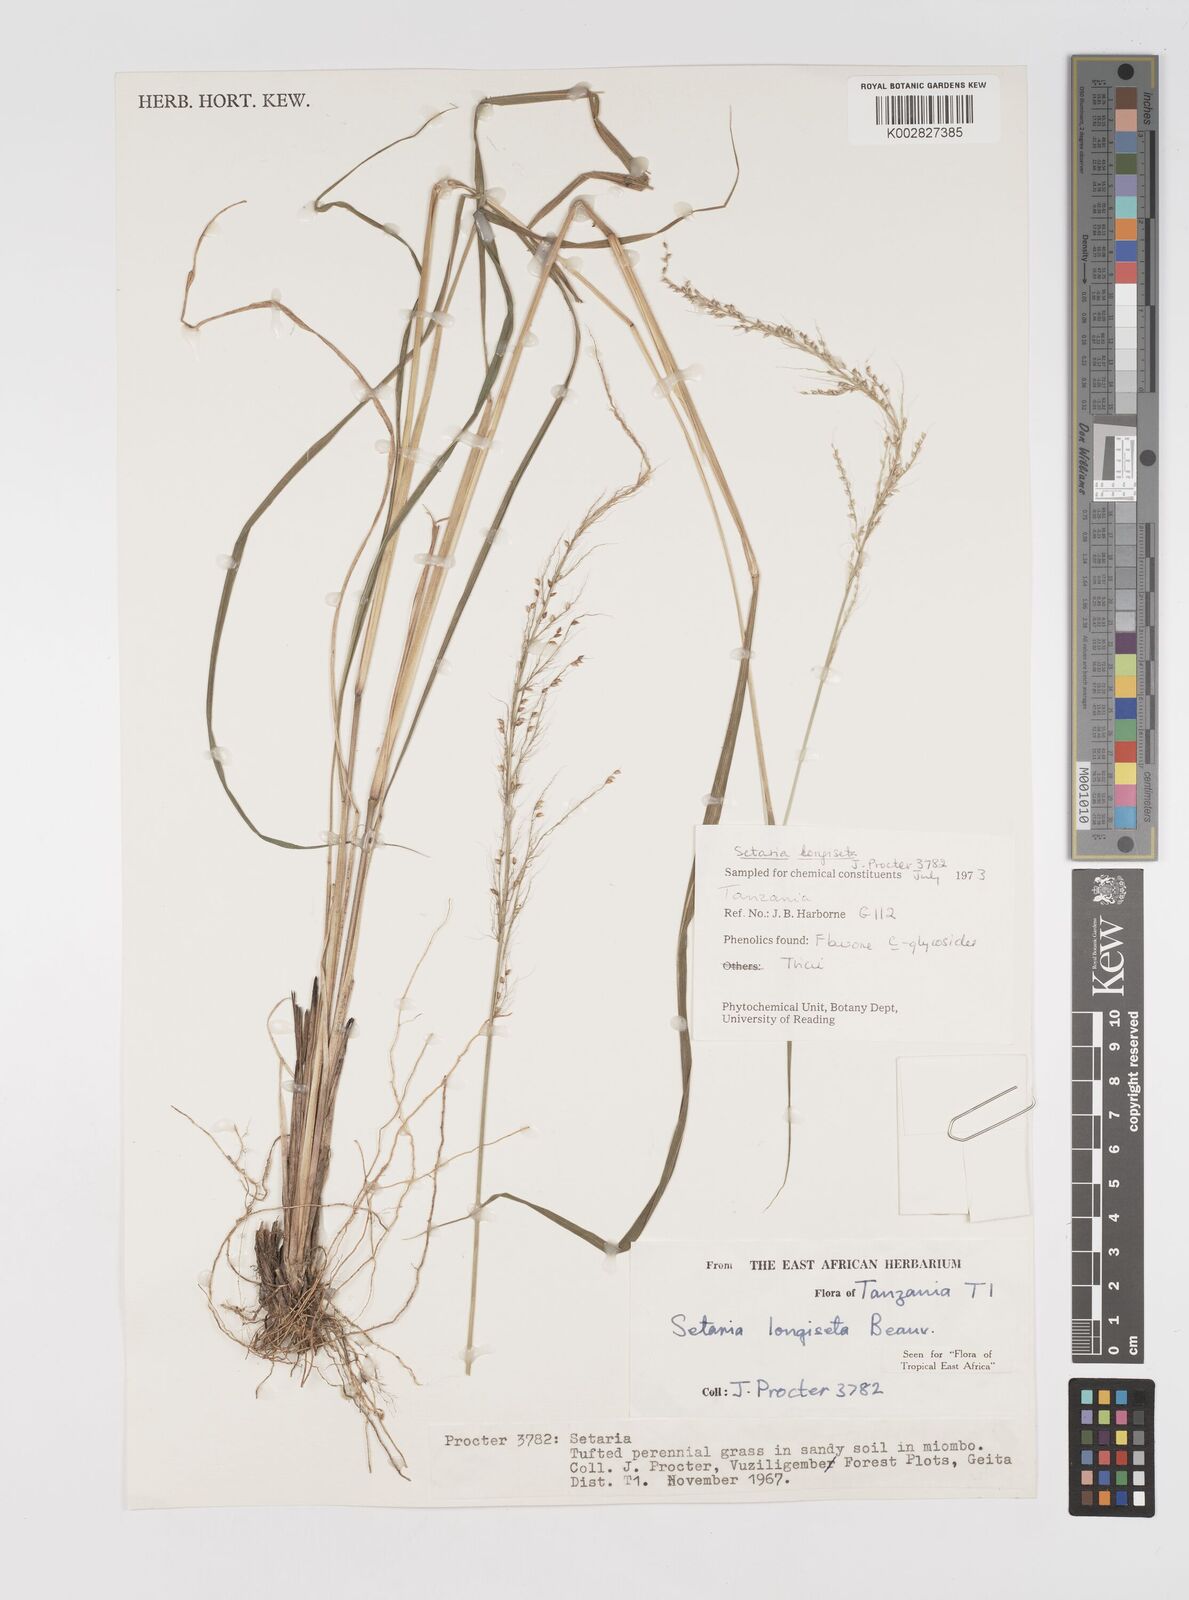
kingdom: Plantae
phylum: Tracheophyta
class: Liliopsida
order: Poales
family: Poaceae
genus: Setaria
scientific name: Setaria longiseta
